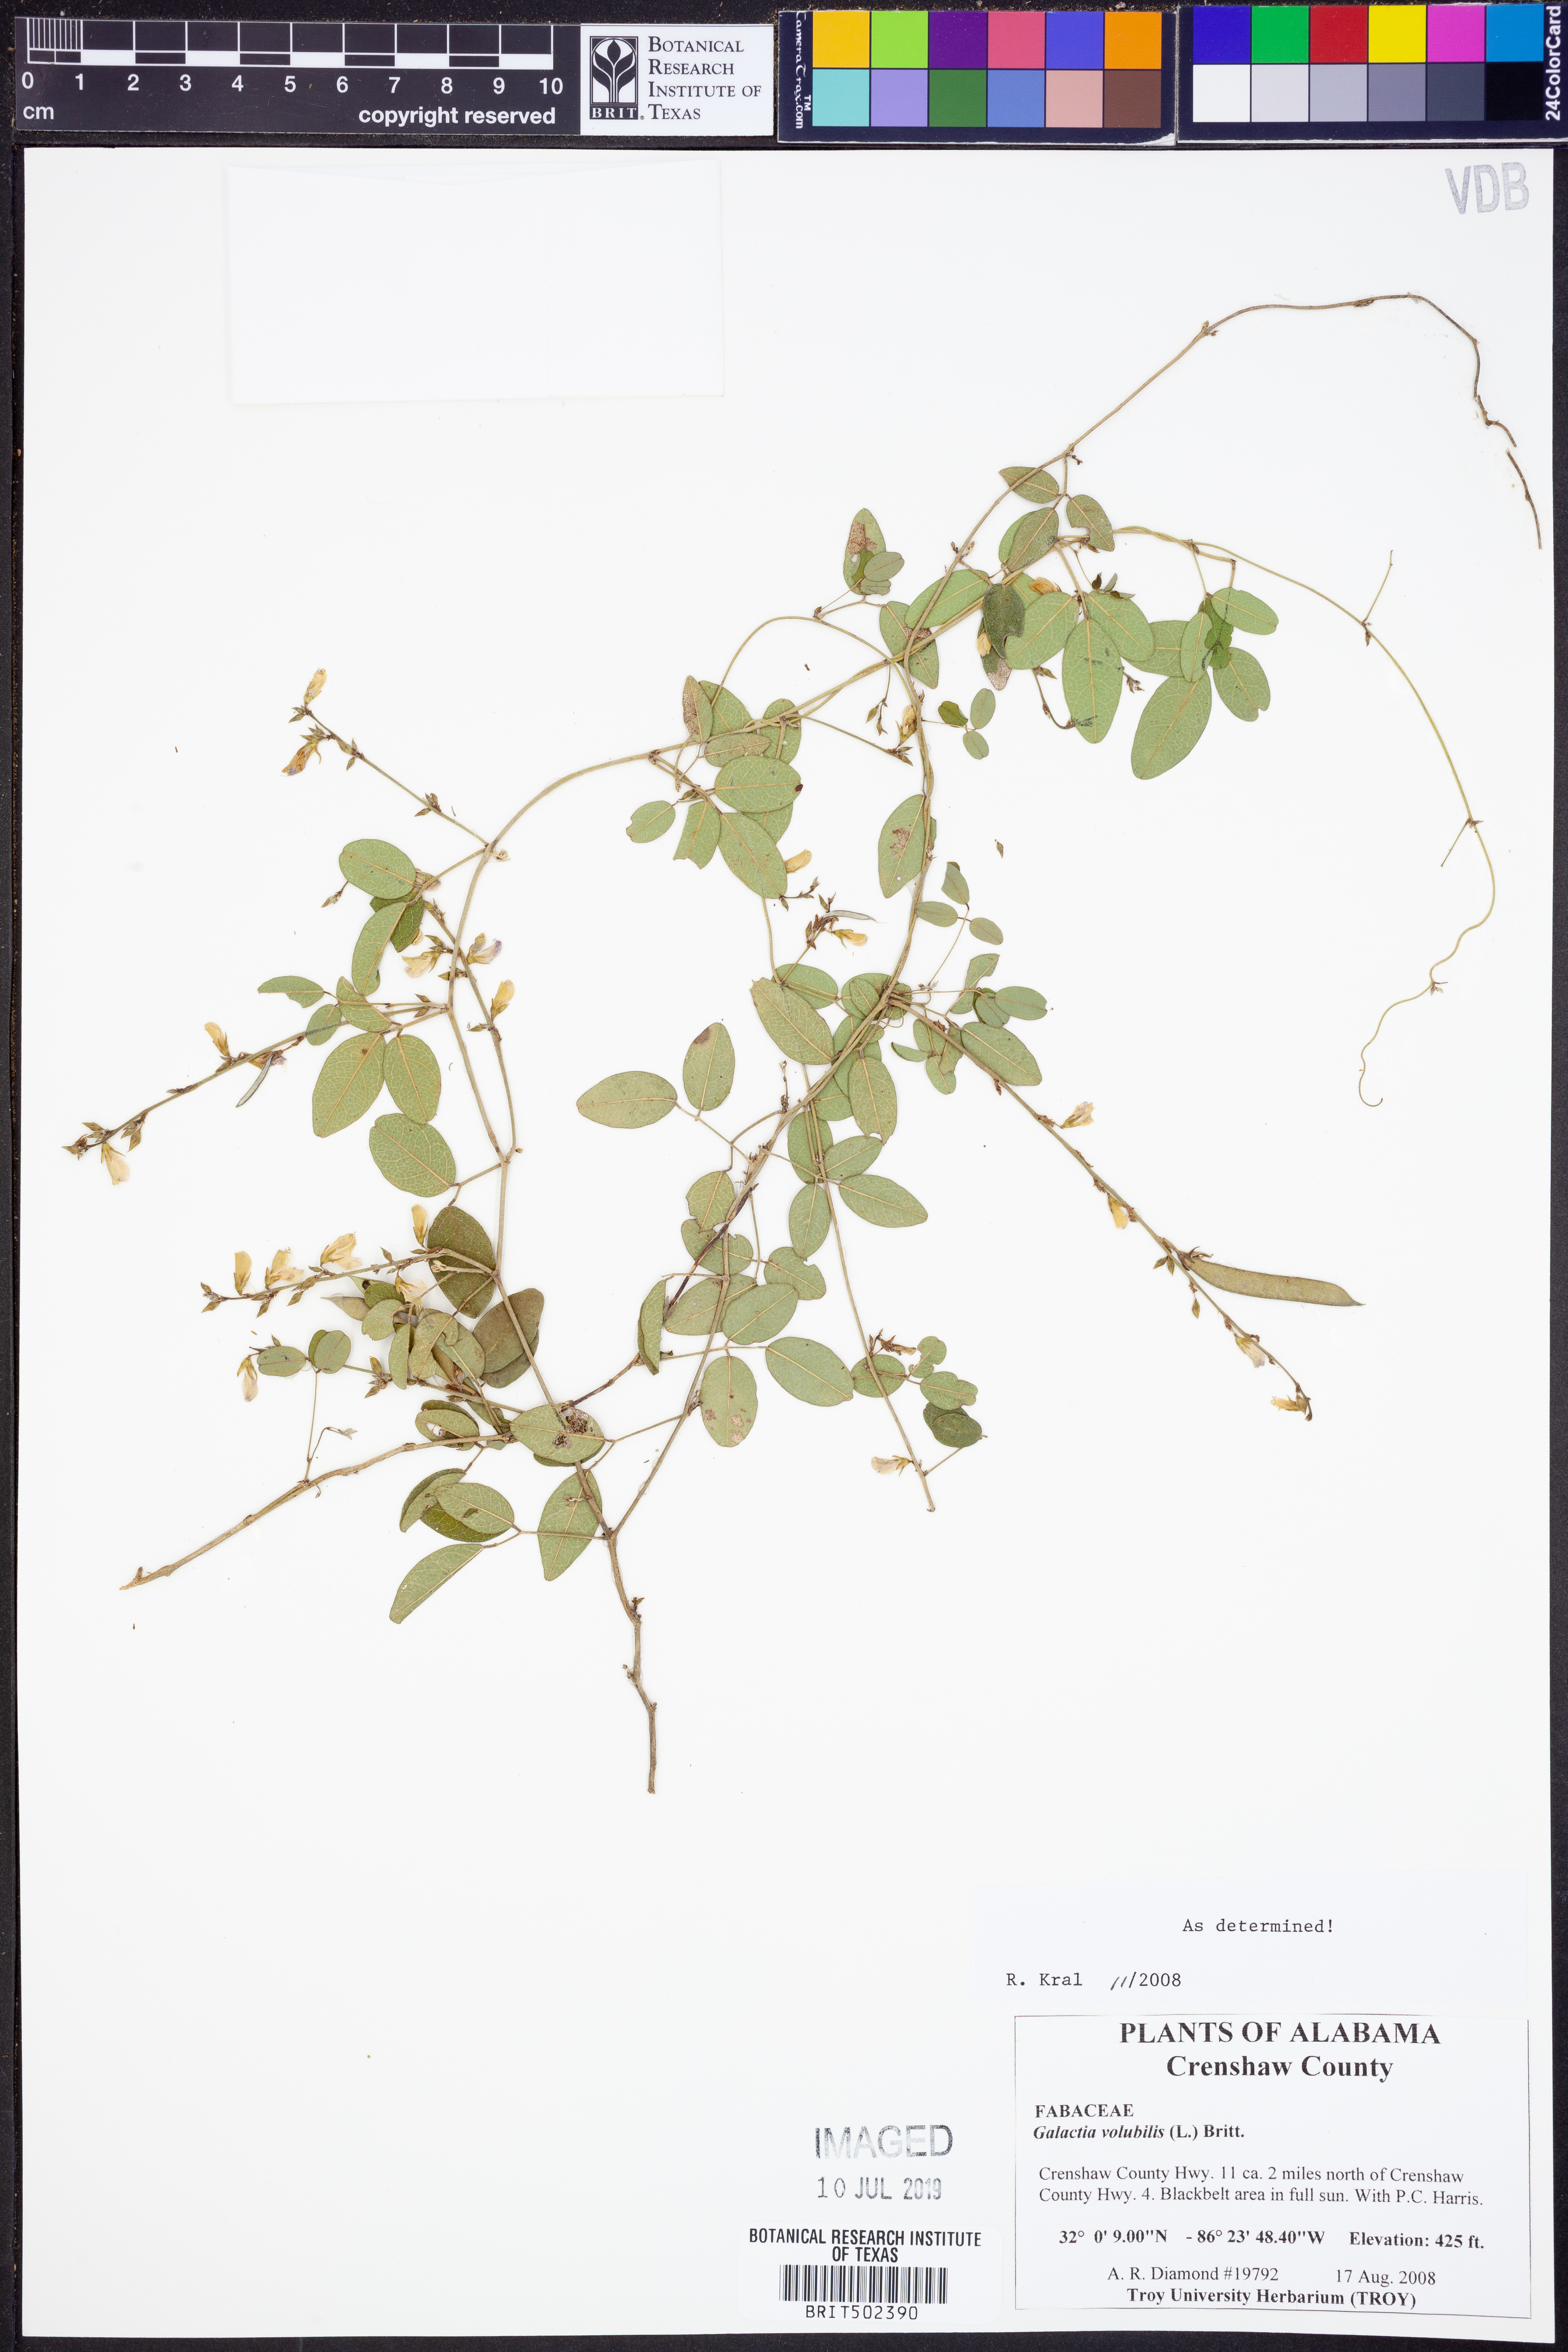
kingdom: Plantae
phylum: Tracheophyta
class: Magnoliopsida
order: Fabales
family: Fabaceae
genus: Galactia
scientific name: Galactia volubilis
